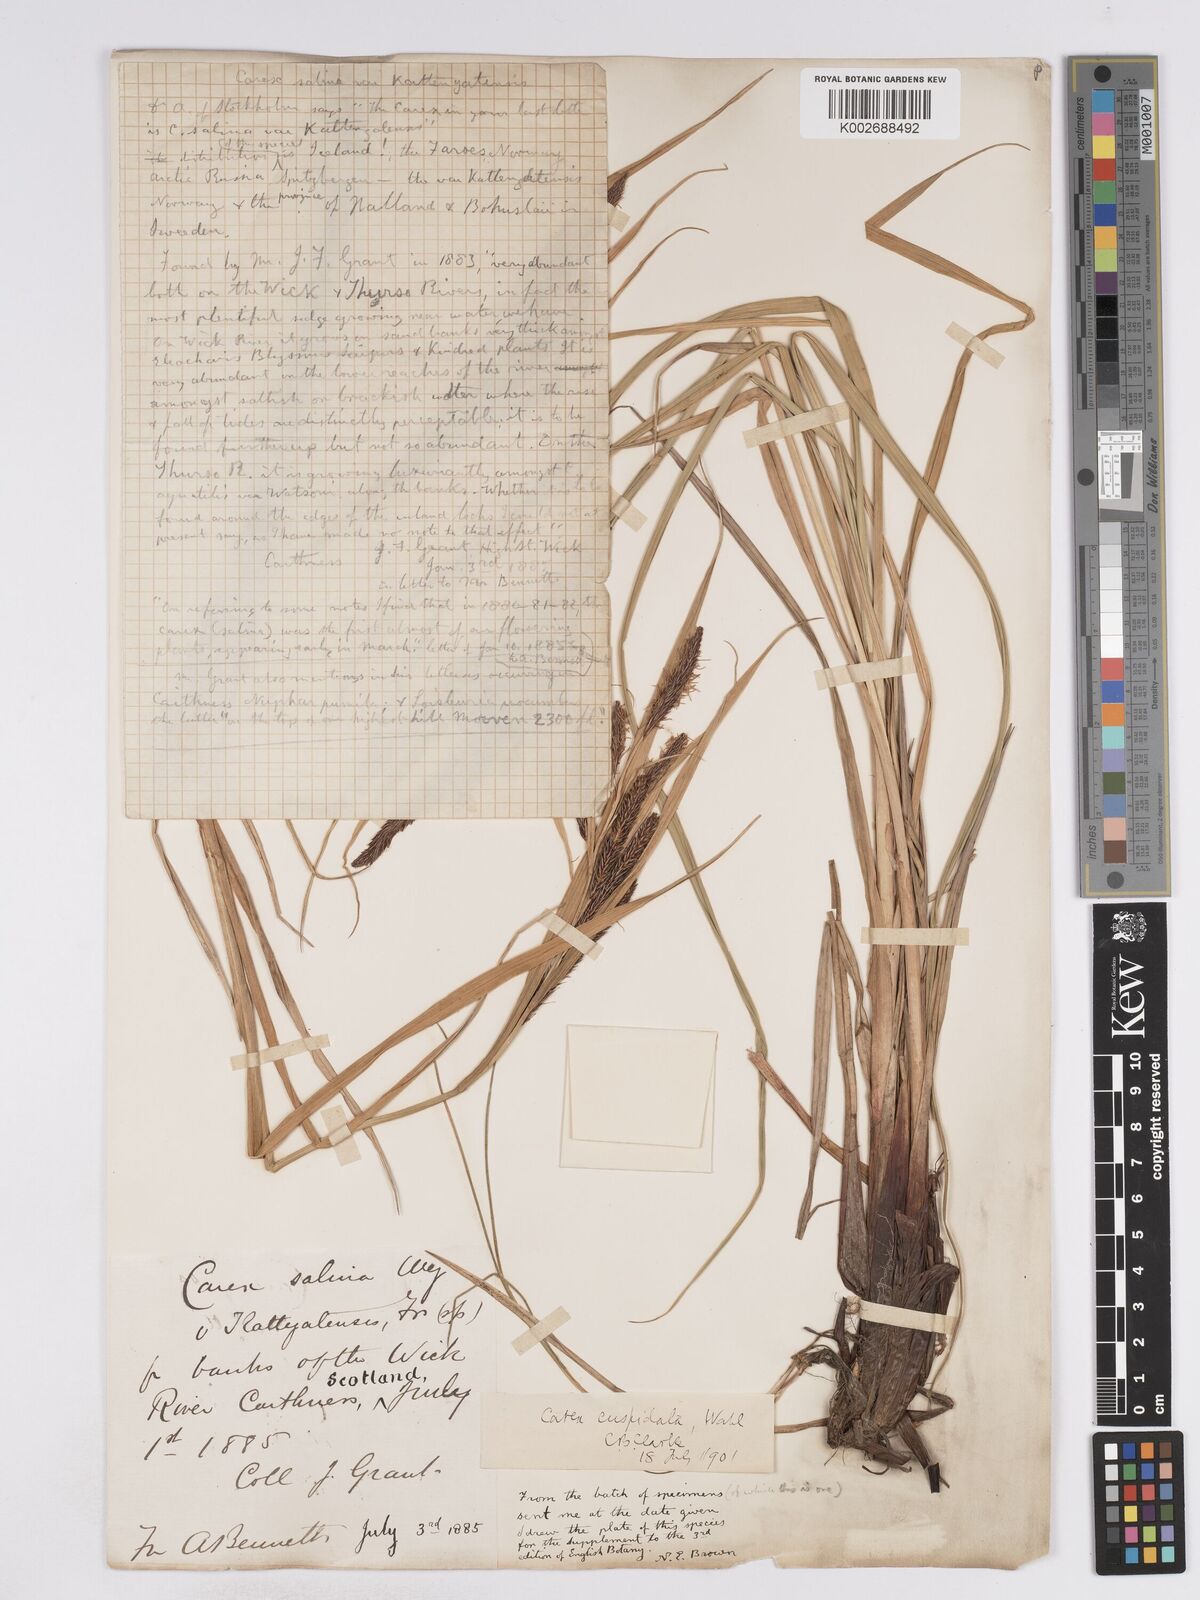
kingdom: Plantae
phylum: Tracheophyta
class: Liliopsida
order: Poales
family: Cyperaceae
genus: Carex
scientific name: Carex recta
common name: Estuarine sedge
